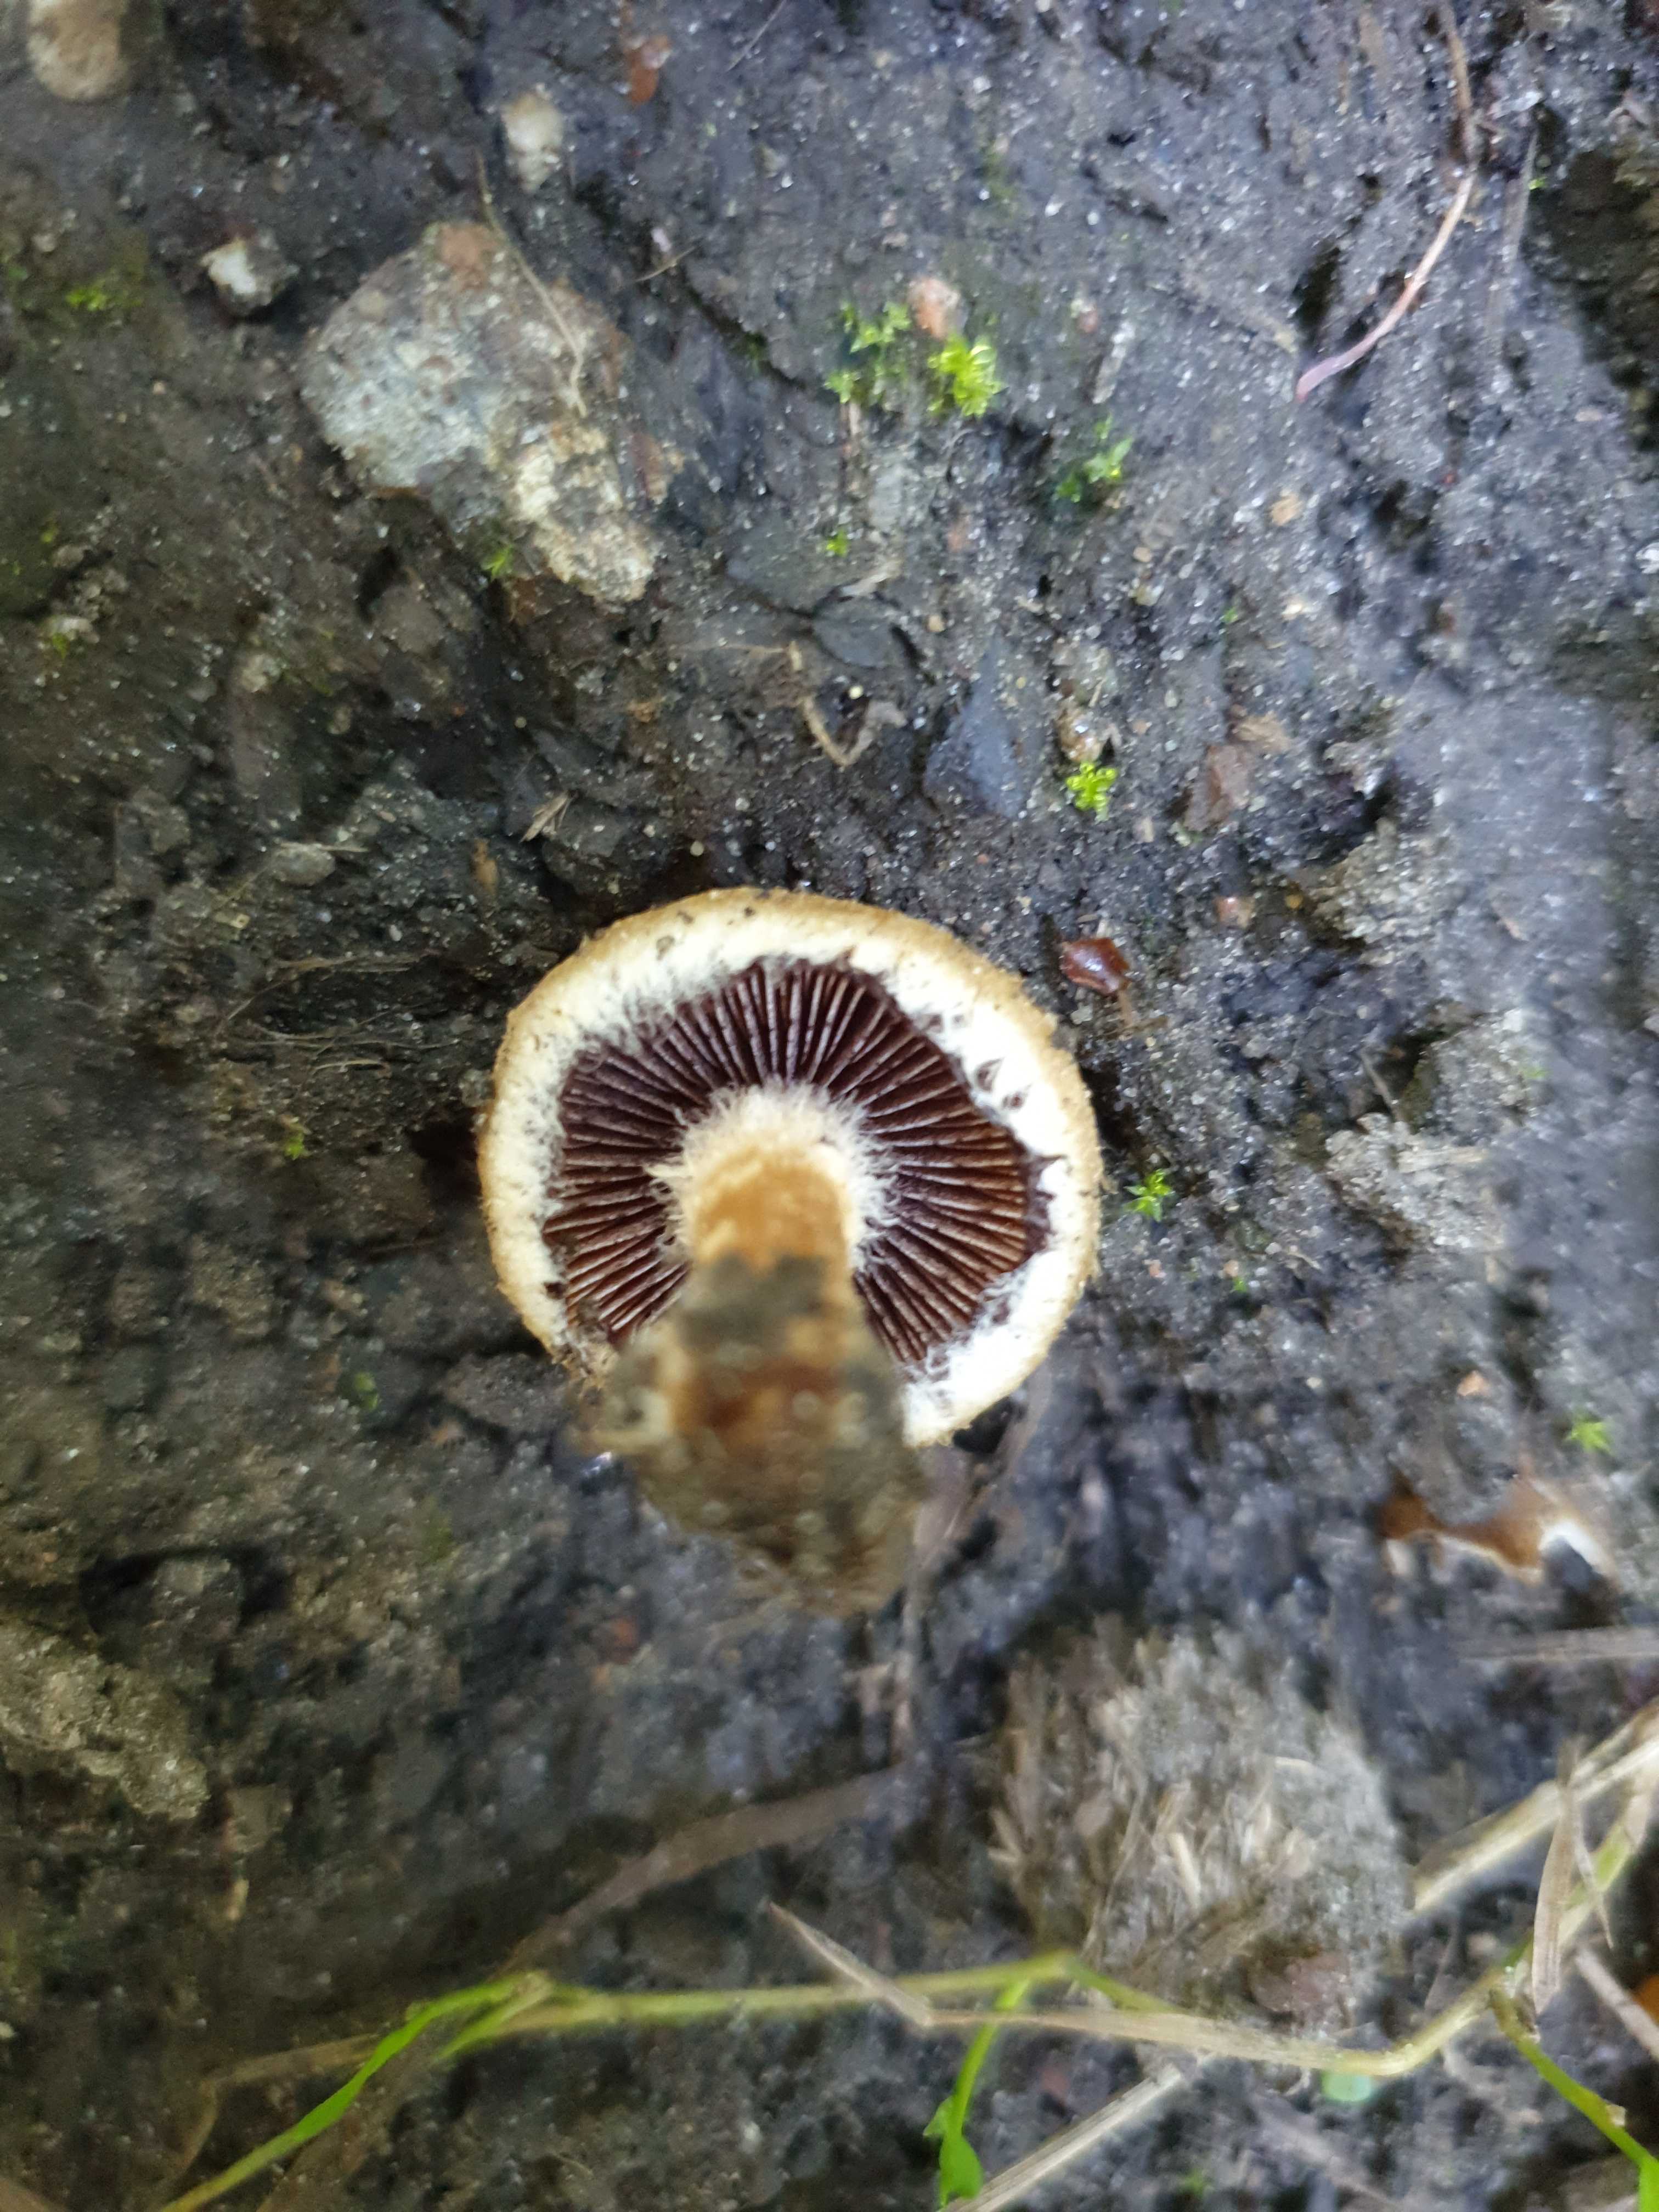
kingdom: Fungi
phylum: Basidiomycota
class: Agaricomycetes
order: Agaricales
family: Psathyrellaceae
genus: Lacrymaria
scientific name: Lacrymaria lacrymabunda
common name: grædende mørkhat
